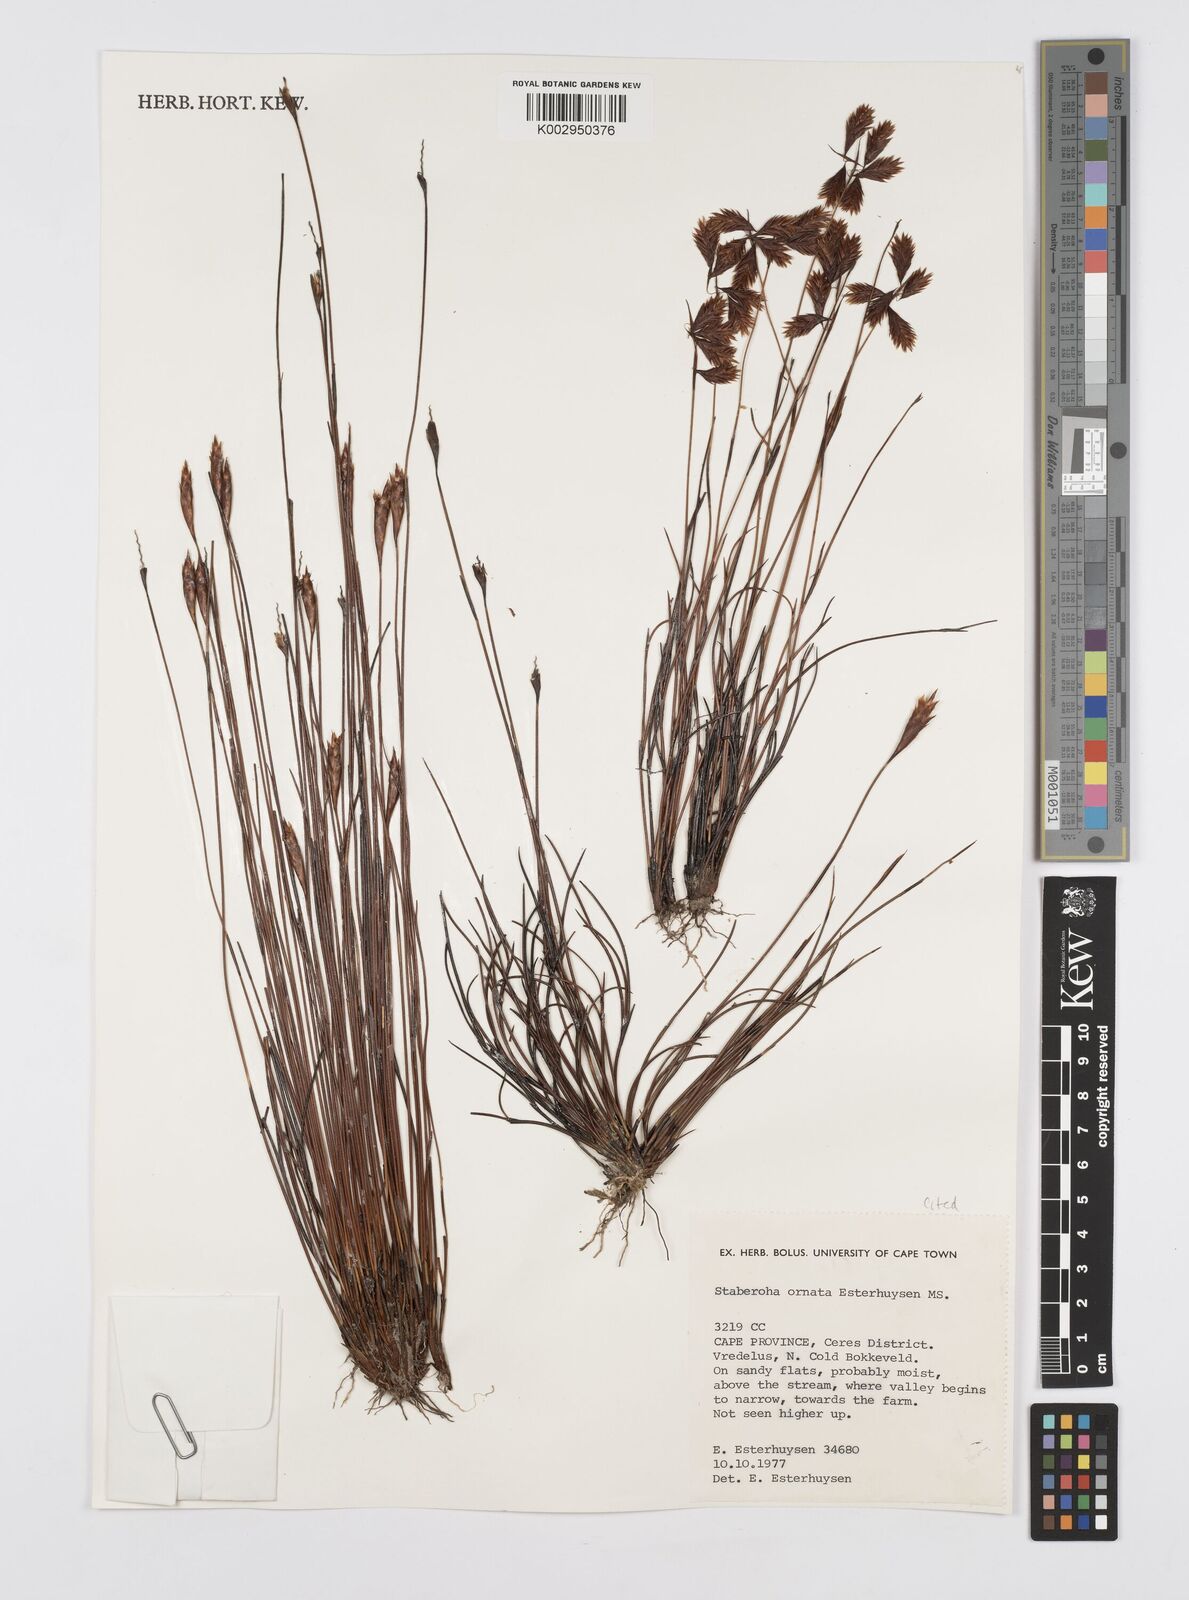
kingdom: Plantae
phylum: Tracheophyta
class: Liliopsida
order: Poales
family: Restionaceae
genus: Staberoha
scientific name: Staberoha ornata
